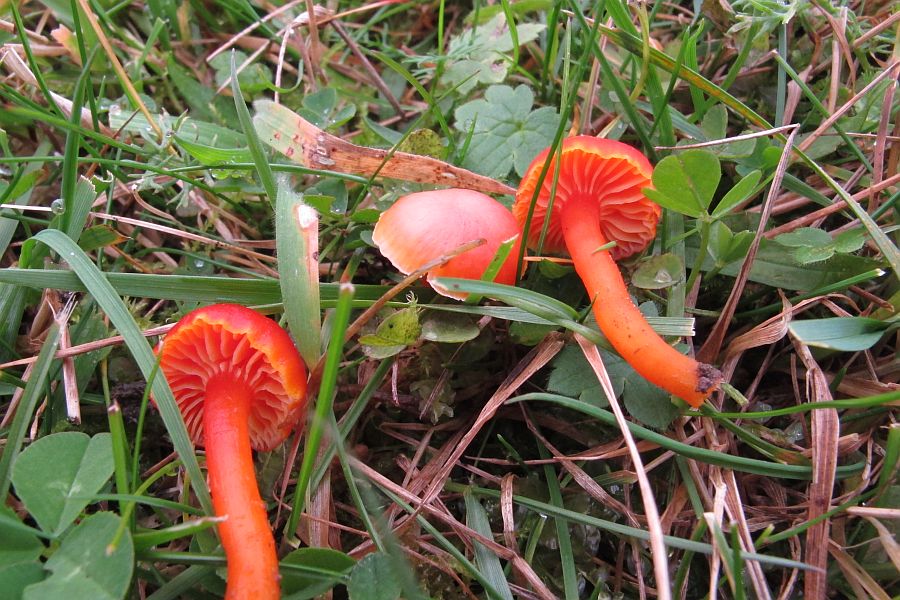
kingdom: Fungi
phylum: Basidiomycota
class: Agaricomycetes
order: Agaricales
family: Hygrophoraceae
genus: Hygrocybe
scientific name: Hygrocybe miniata
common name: mønje-vokshat
